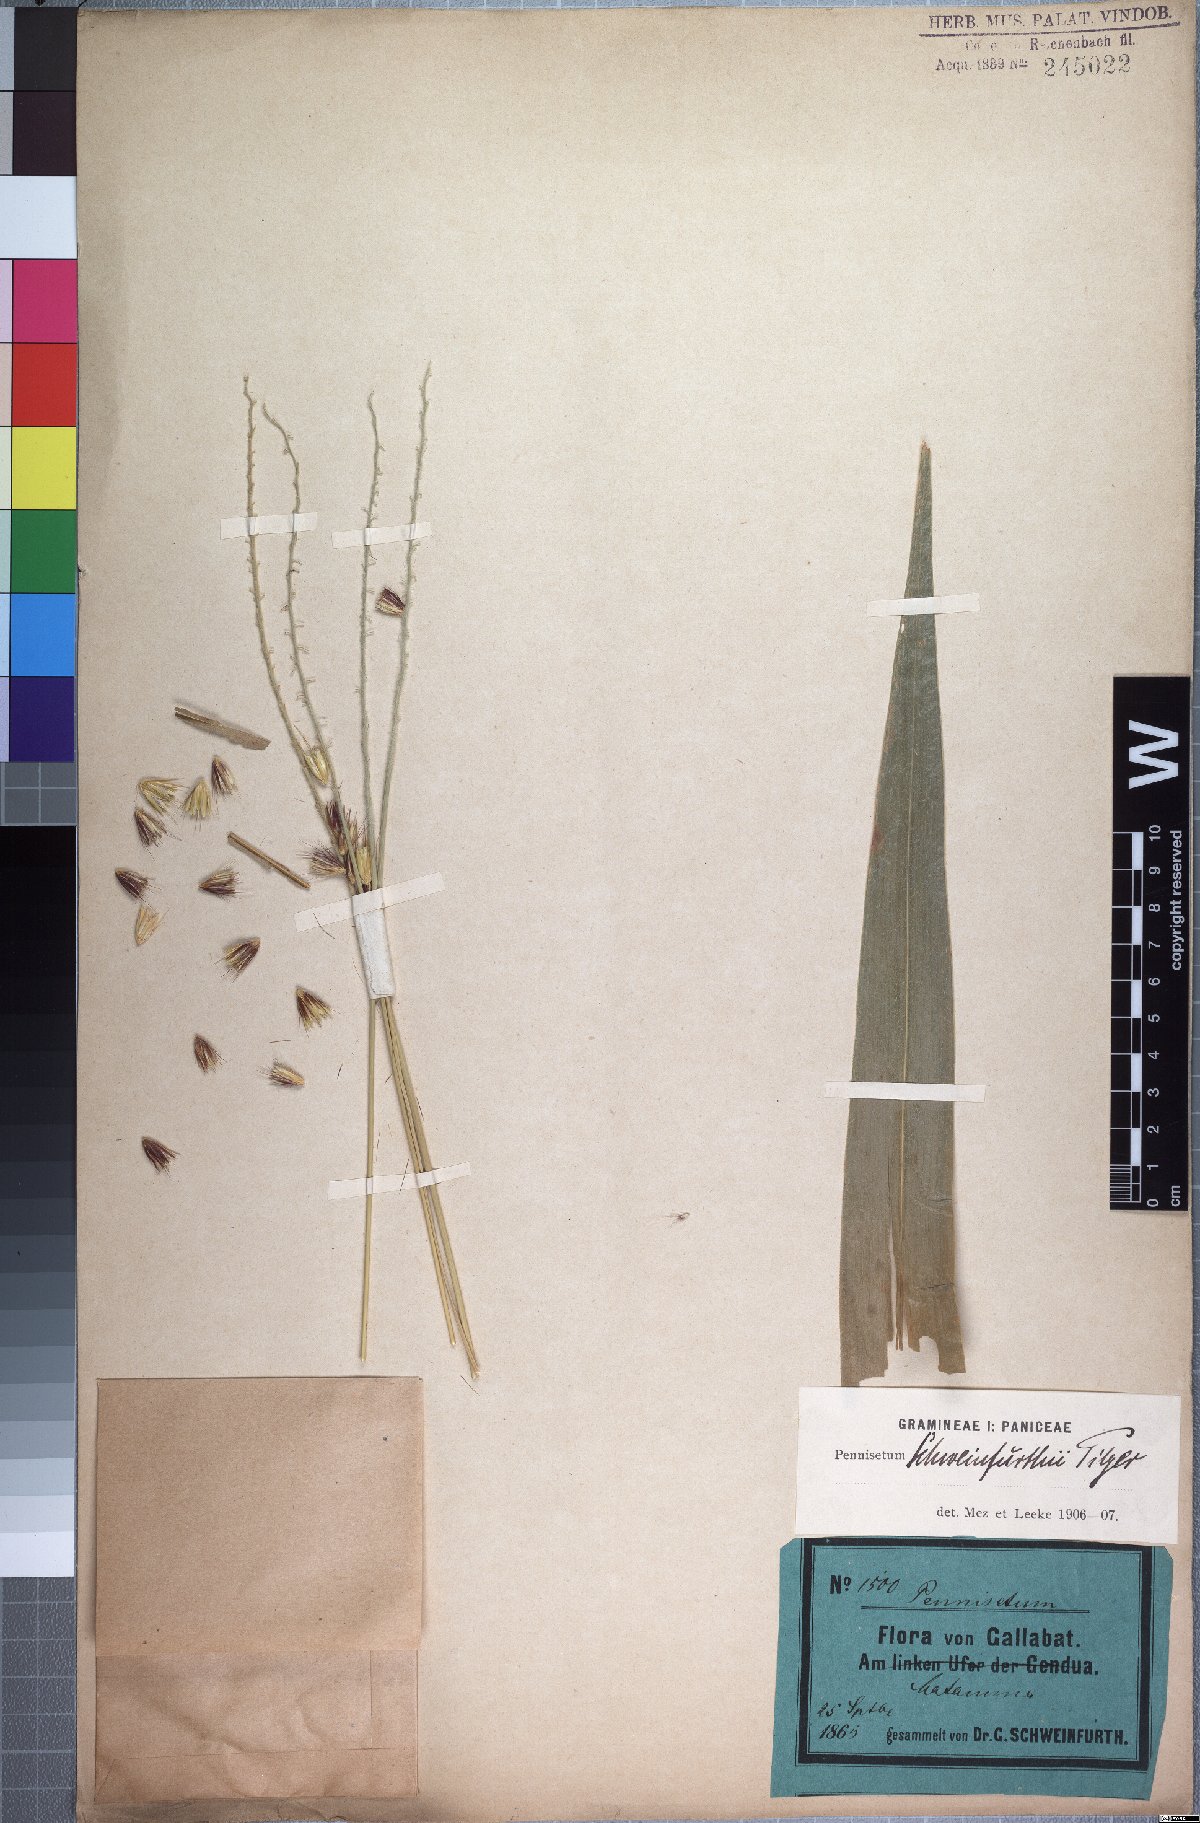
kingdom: Plantae
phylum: Tracheophyta
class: Liliopsida
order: Poales
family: Poaceae
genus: Cenchrus
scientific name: Cenchrus schweinfurthii
